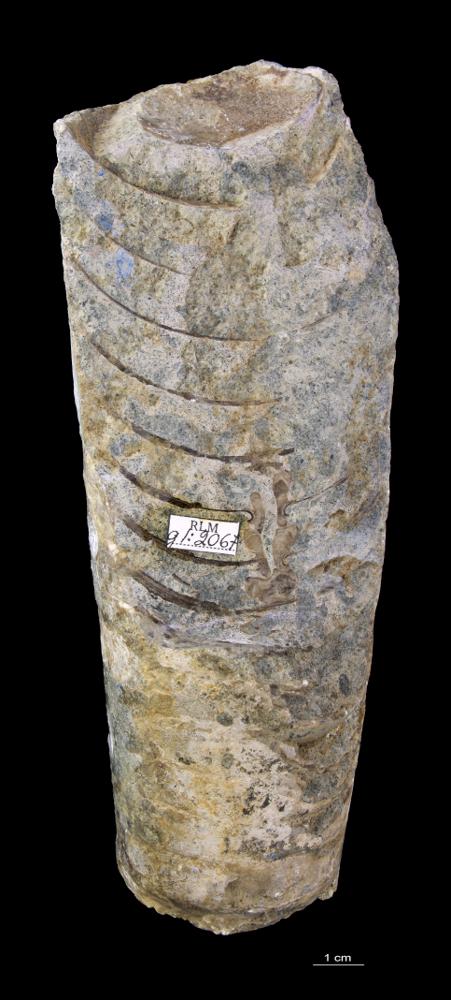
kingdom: Animalia
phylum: Mollusca
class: Cephalopoda
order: Orthocerida
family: Orthoceratidae
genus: Orthoceras
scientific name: Orthoceras
